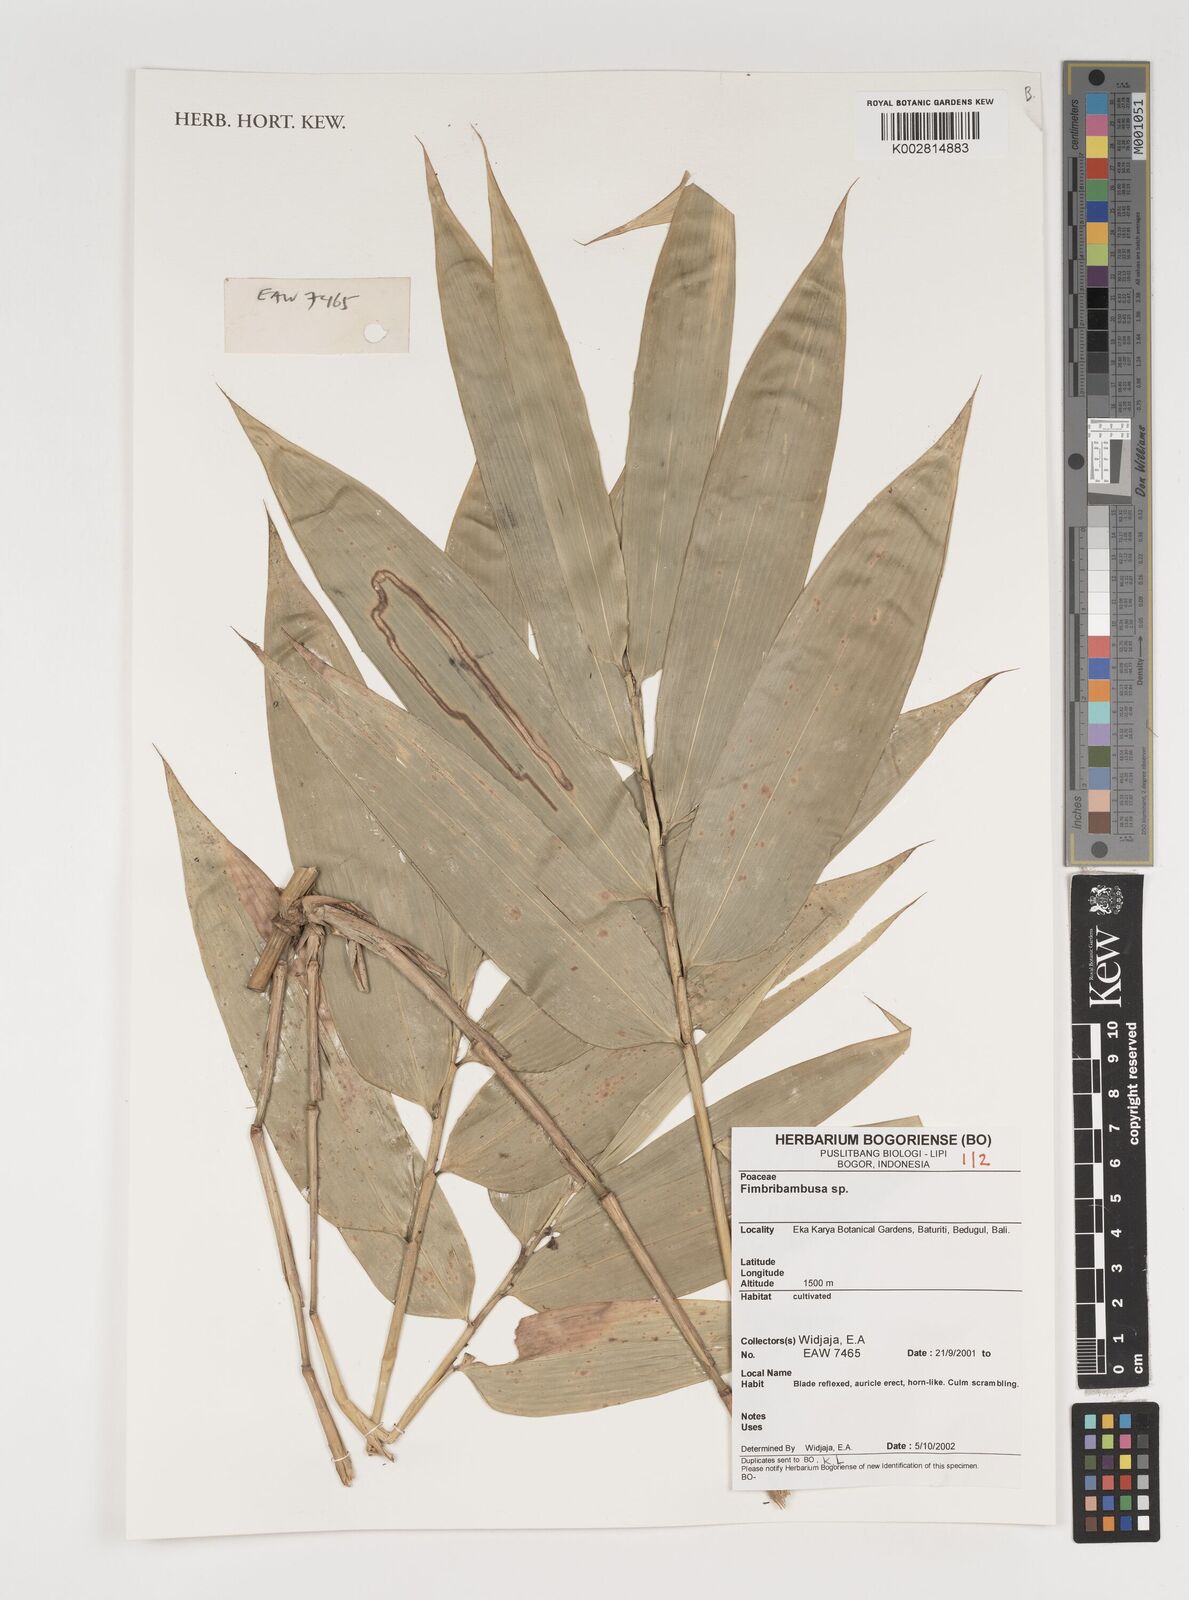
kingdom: Plantae
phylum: Tracheophyta
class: Liliopsida
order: Poales
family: Poaceae
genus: Fimbribambusa
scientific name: Fimbribambusa horsfieldii
